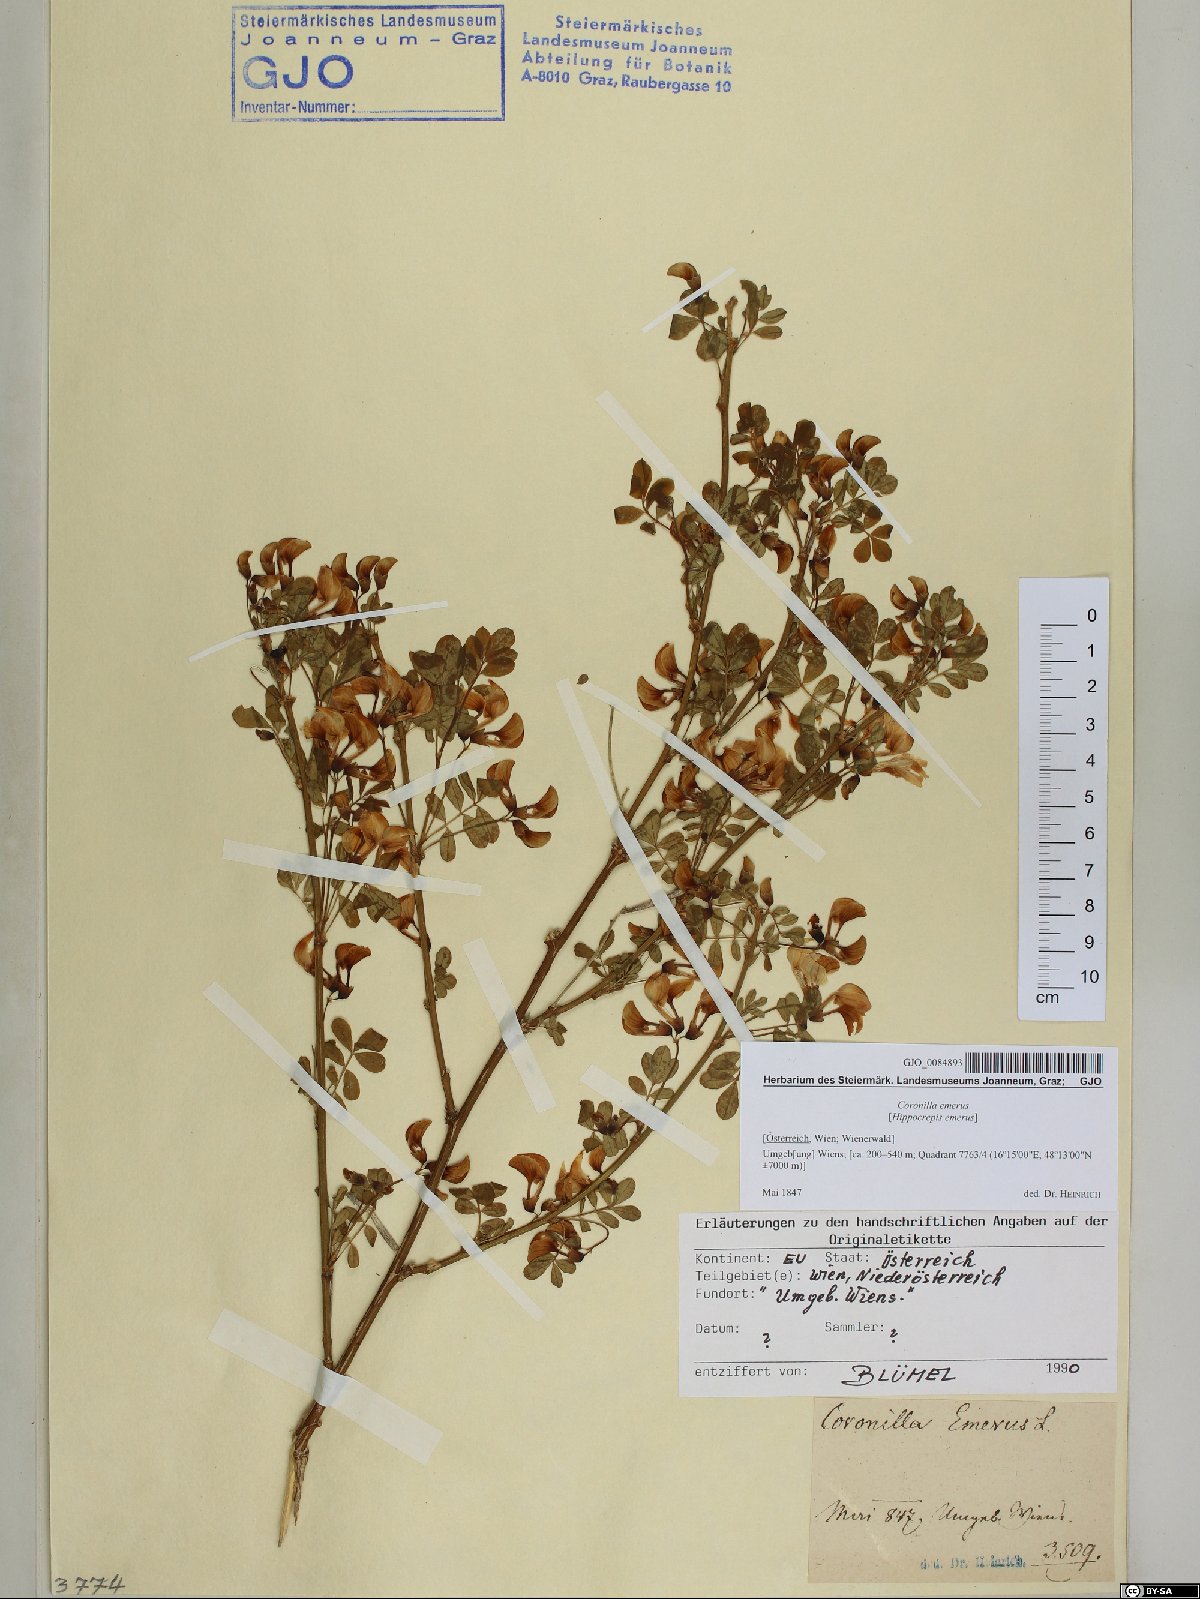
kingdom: Plantae
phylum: Tracheophyta
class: Magnoliopsida
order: Fabales
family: Fabaceae
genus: Hippocrepis
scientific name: Hippocrepis emerus
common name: Scorpion senna
